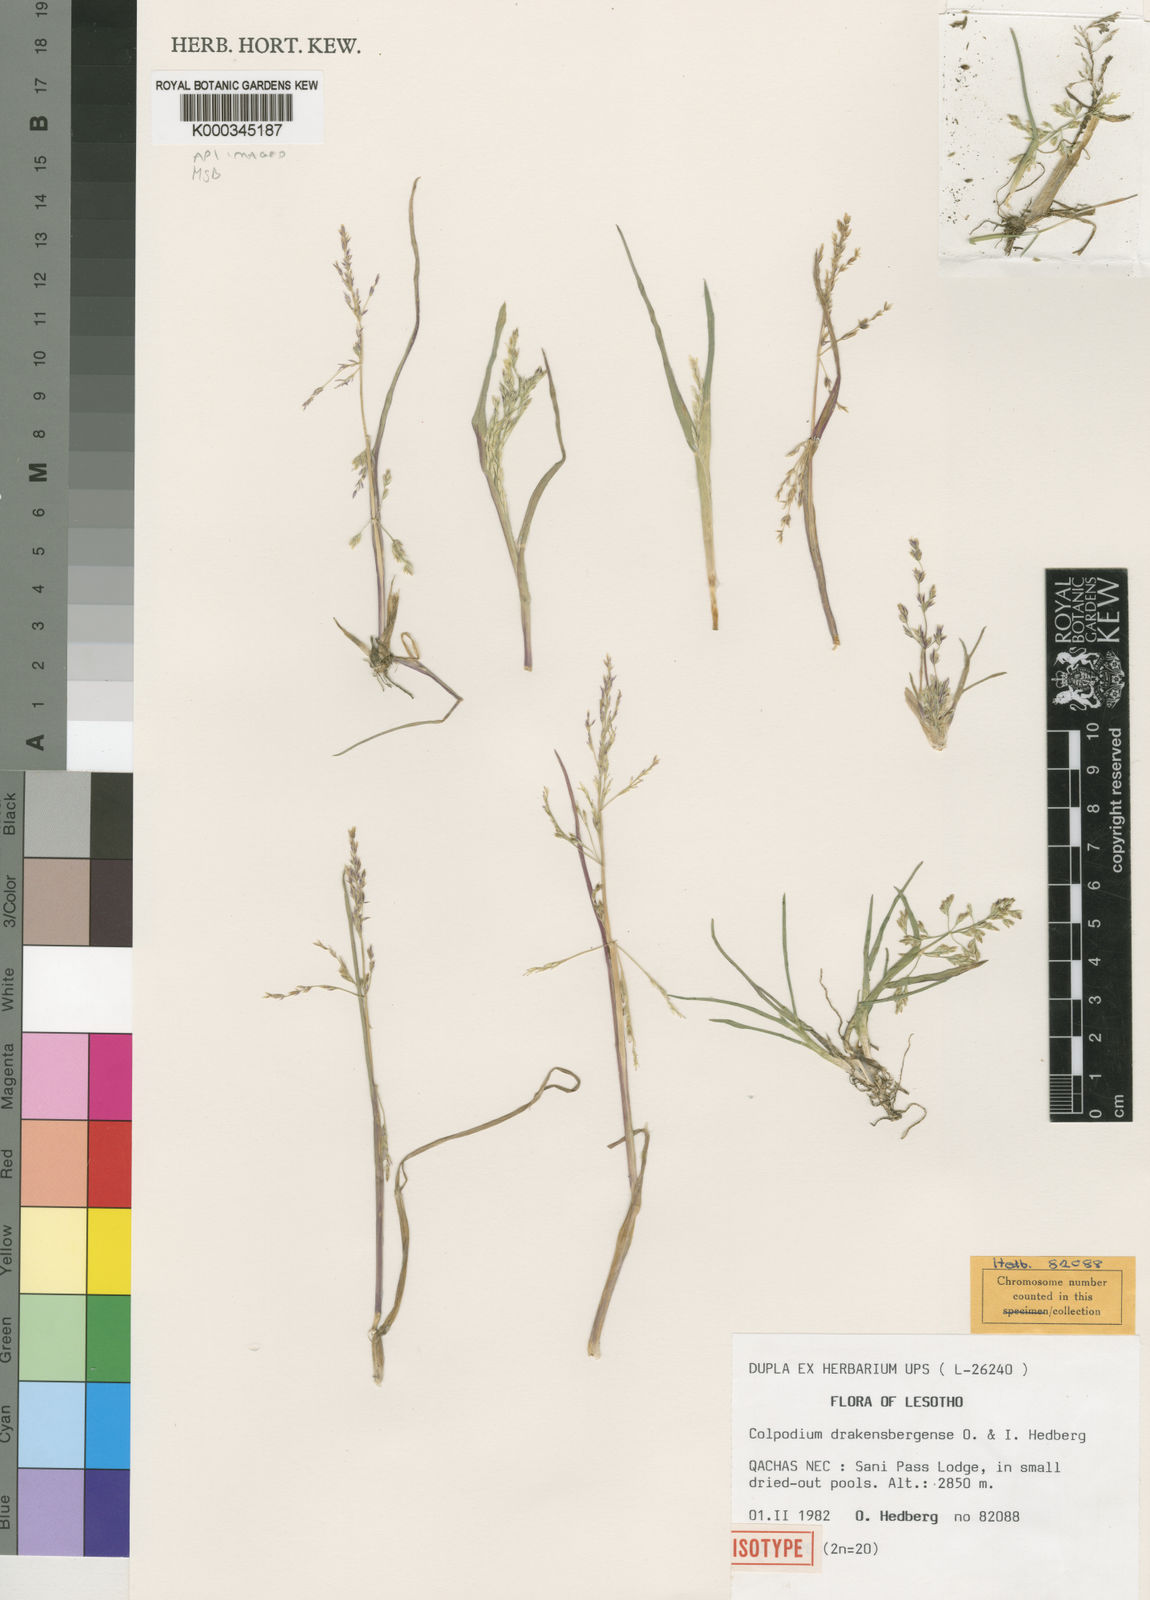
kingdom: Plantae
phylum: Tracheophyta
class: Liliopsida
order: Poales
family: Poaceae
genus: Catabrosa
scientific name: Catabrosa drakensbergensis
